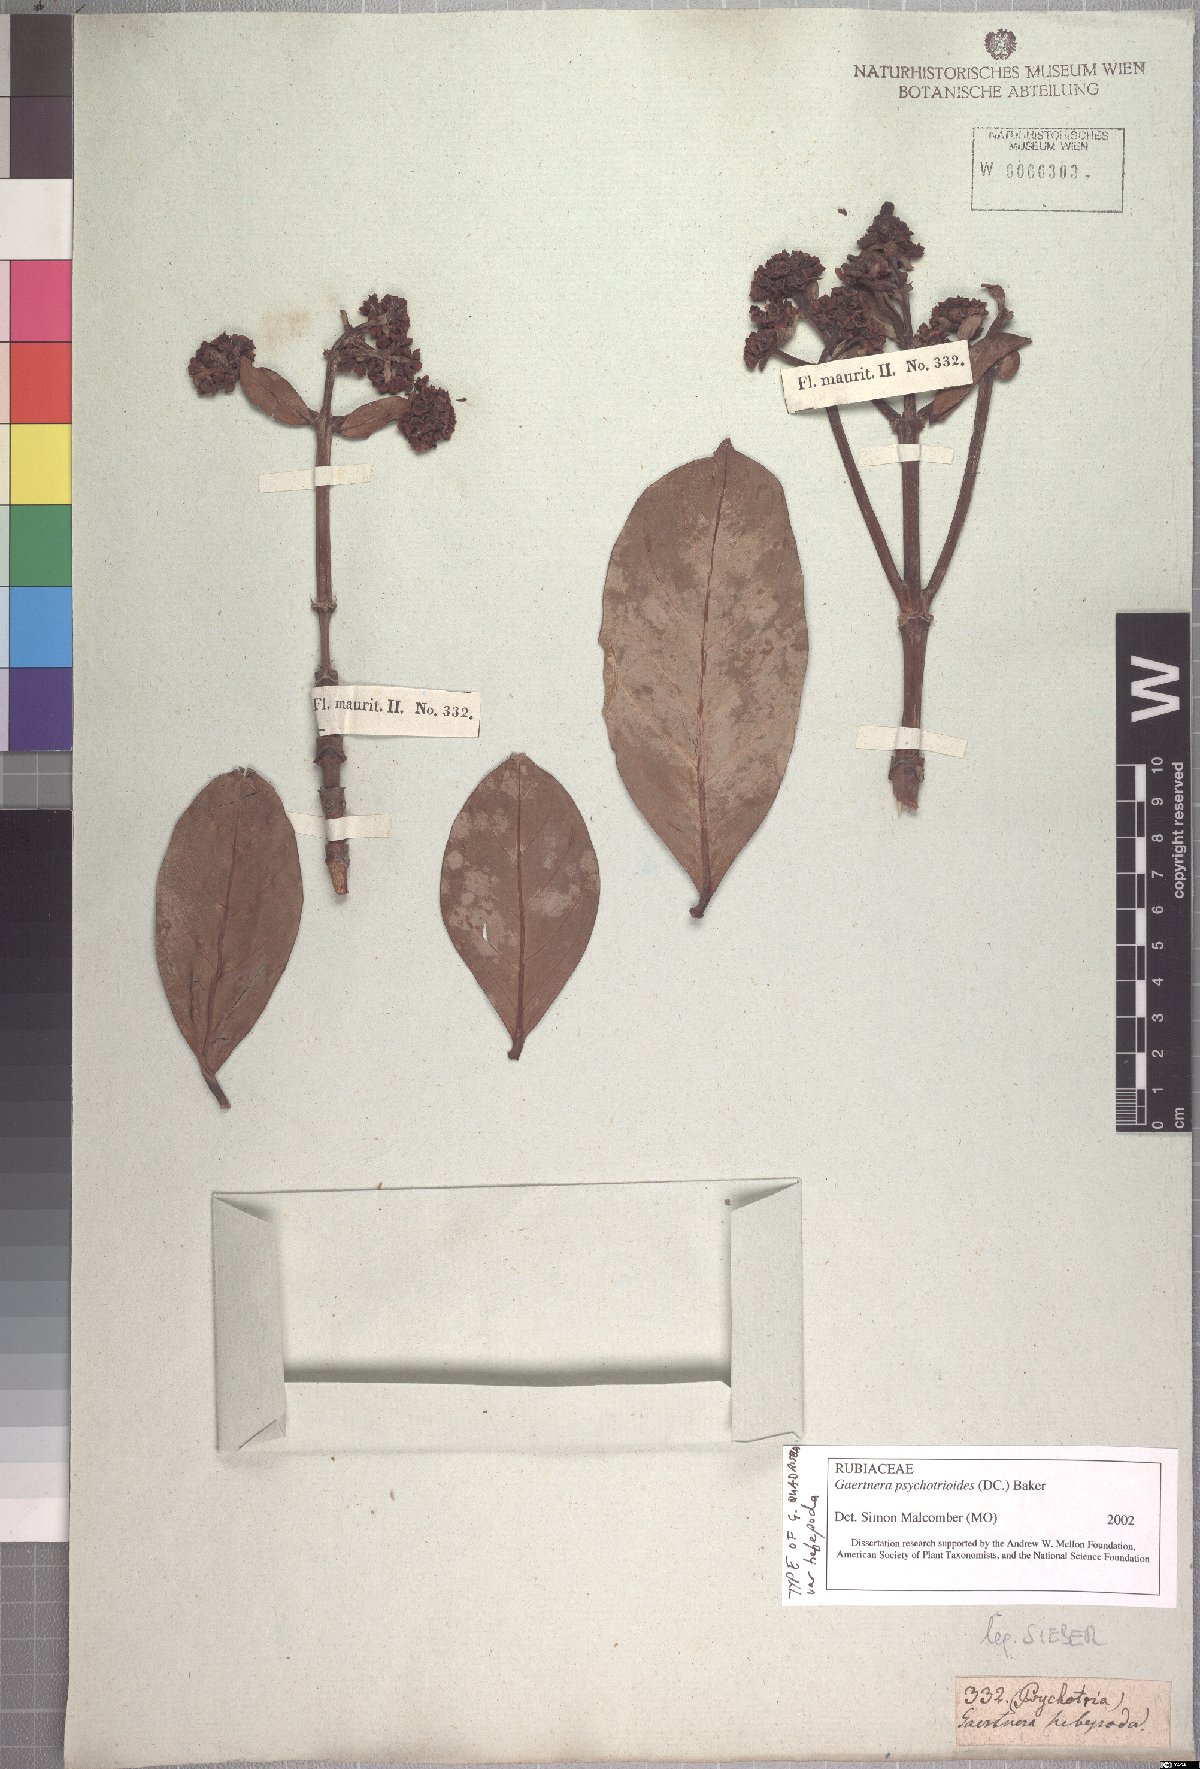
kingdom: Plantae
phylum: Tracheophyta
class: Magnoliopsida
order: Gentianales
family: Rubiaceae
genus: Gaertnera
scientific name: Gaertnera psychotrioides
